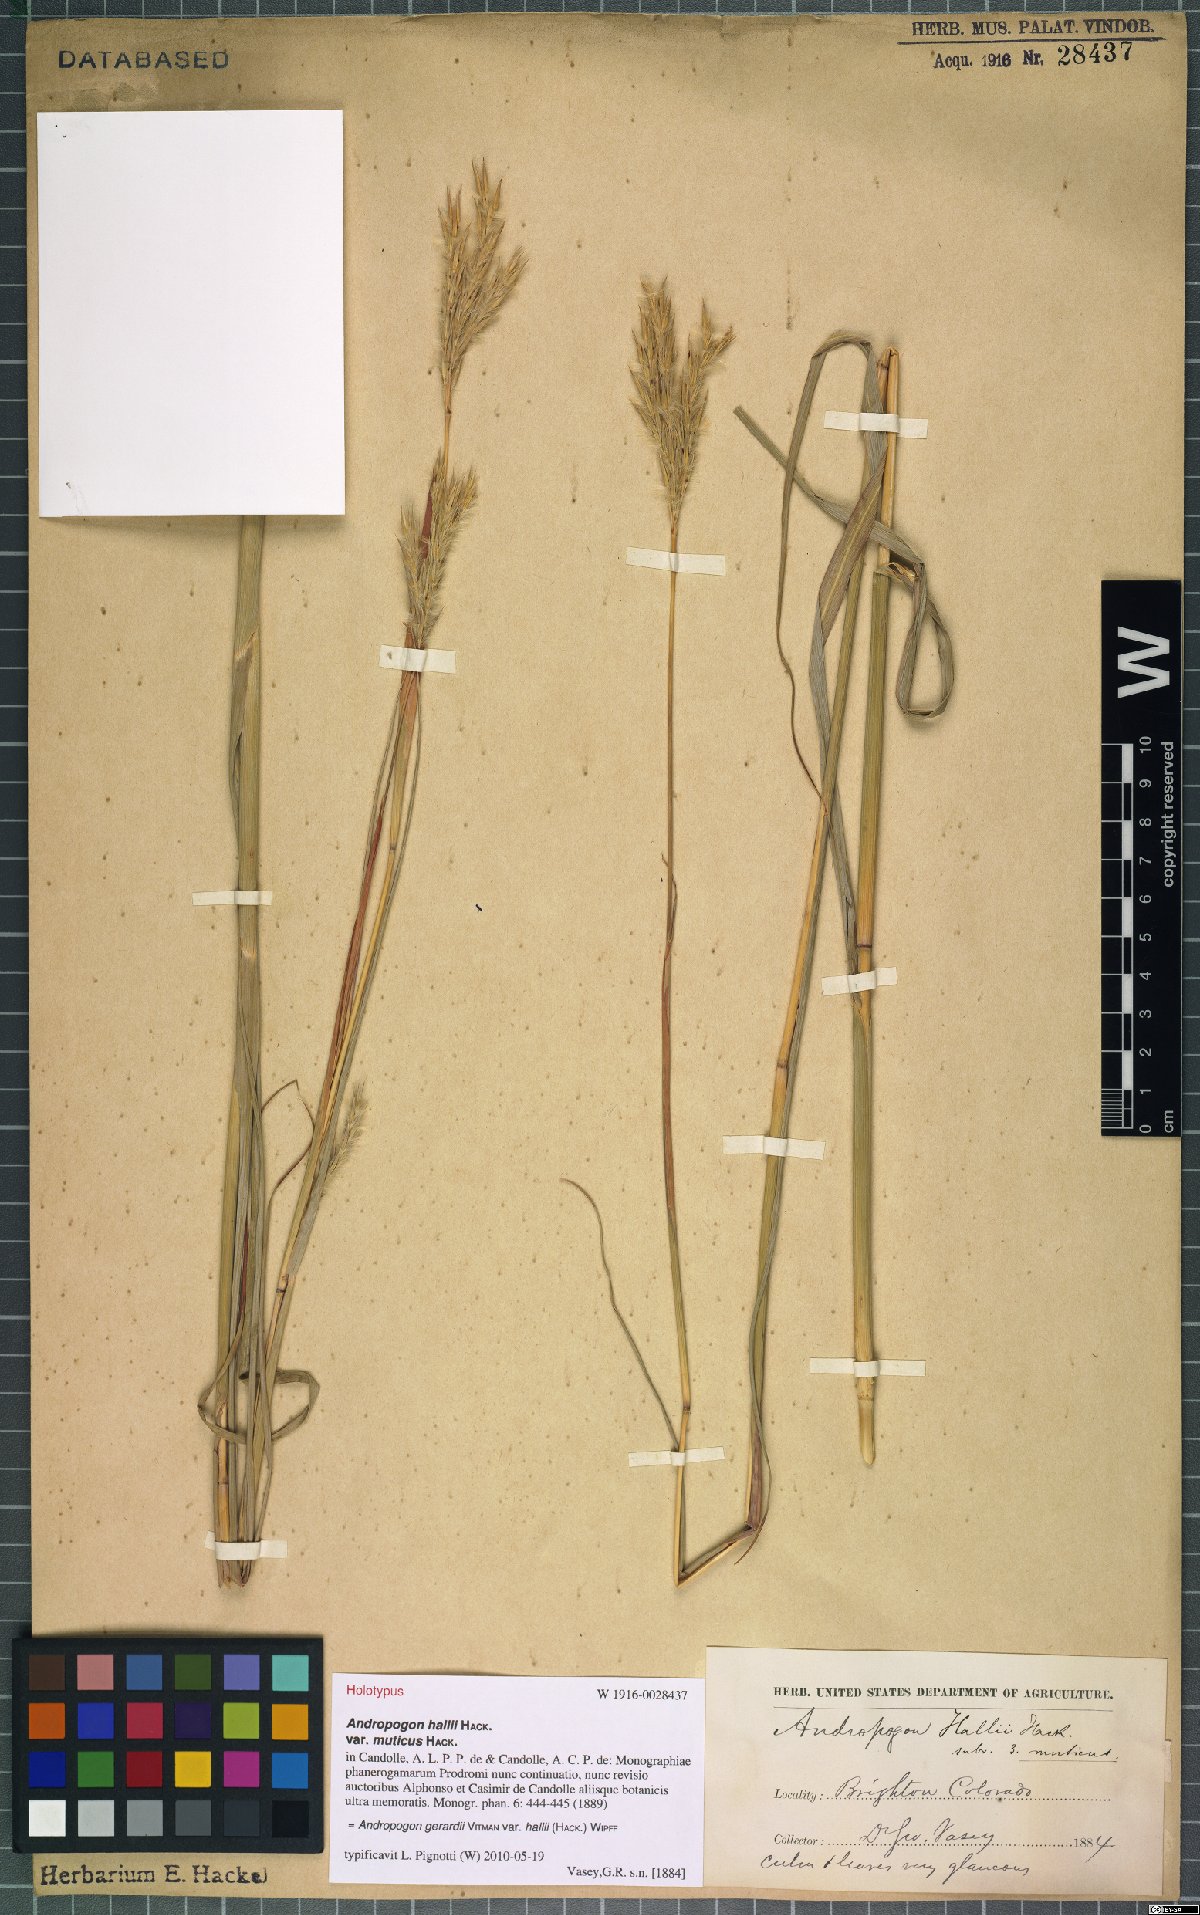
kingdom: Plantae
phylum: Tracheophyta
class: Liliopsida
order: Poales
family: Poaceae
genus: Andropogon
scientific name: Andropogon hallii
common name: Sand bluestem
